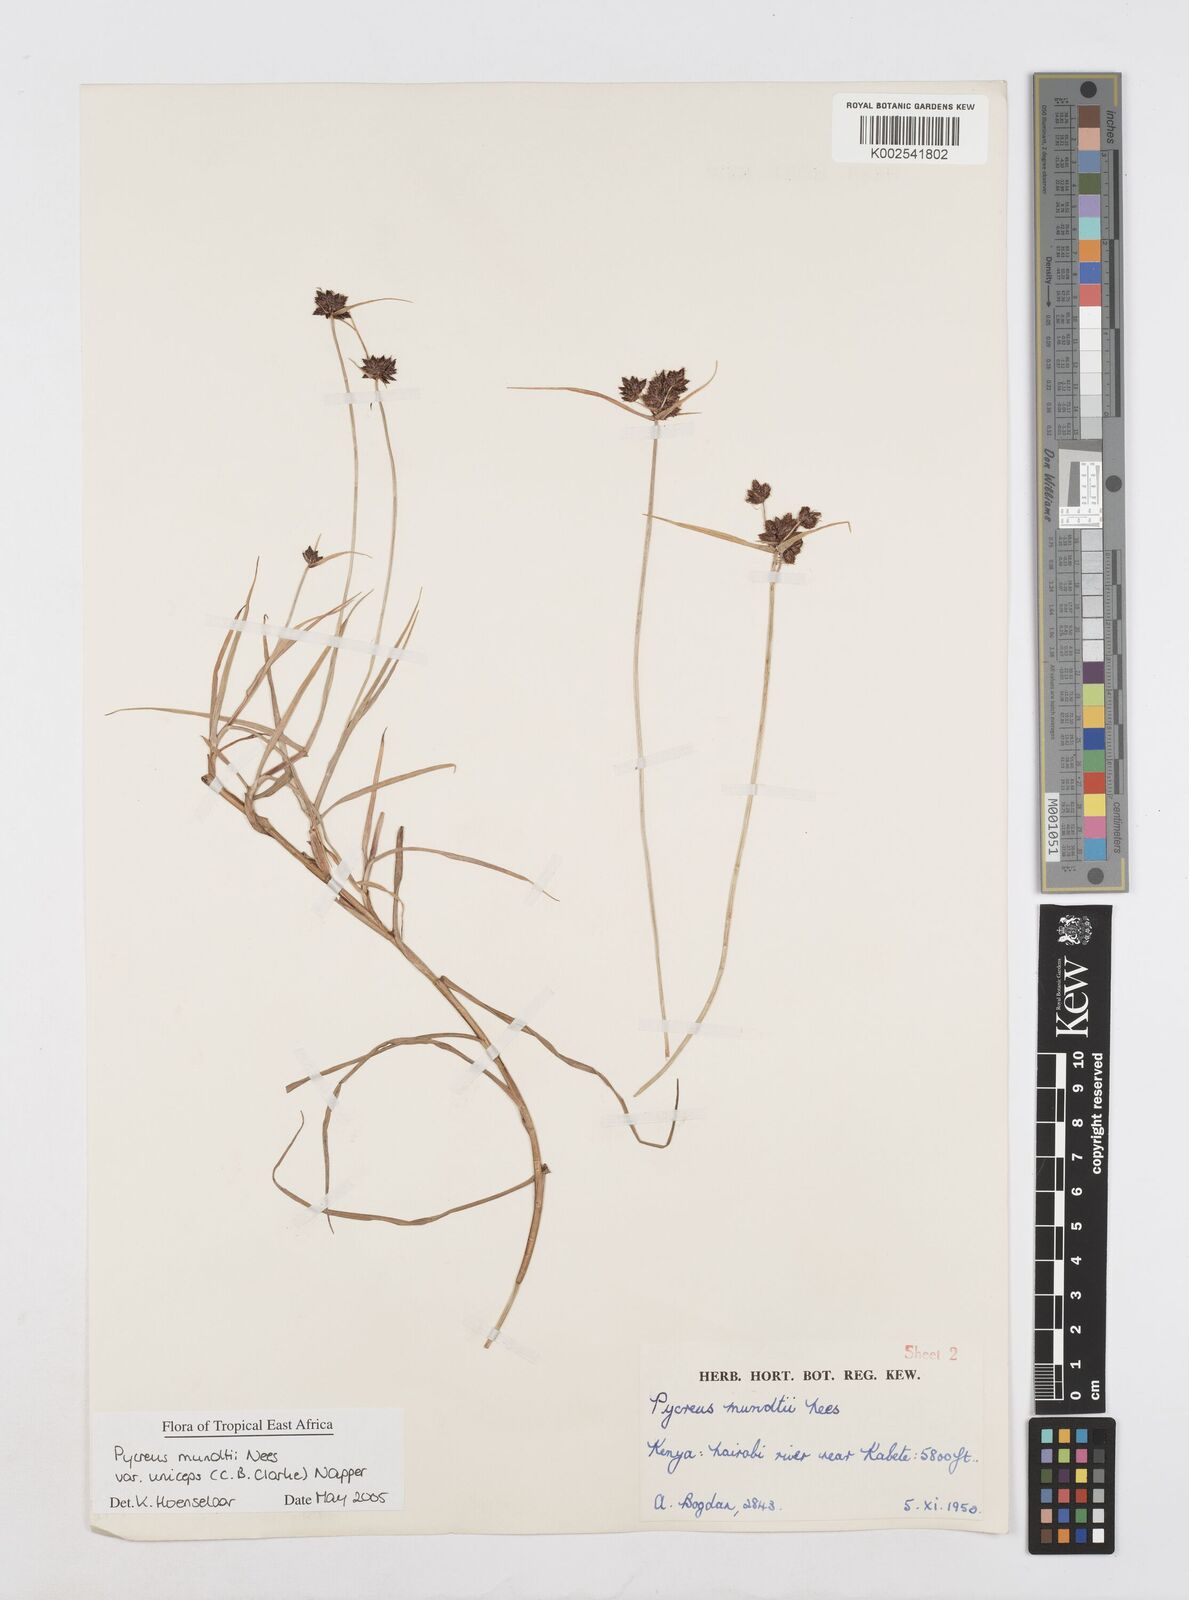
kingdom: Plantae
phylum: Tracheophyta
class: Liliopsida
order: Poales
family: Cyperaceae
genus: Cyperus
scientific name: Cyperus mundii
